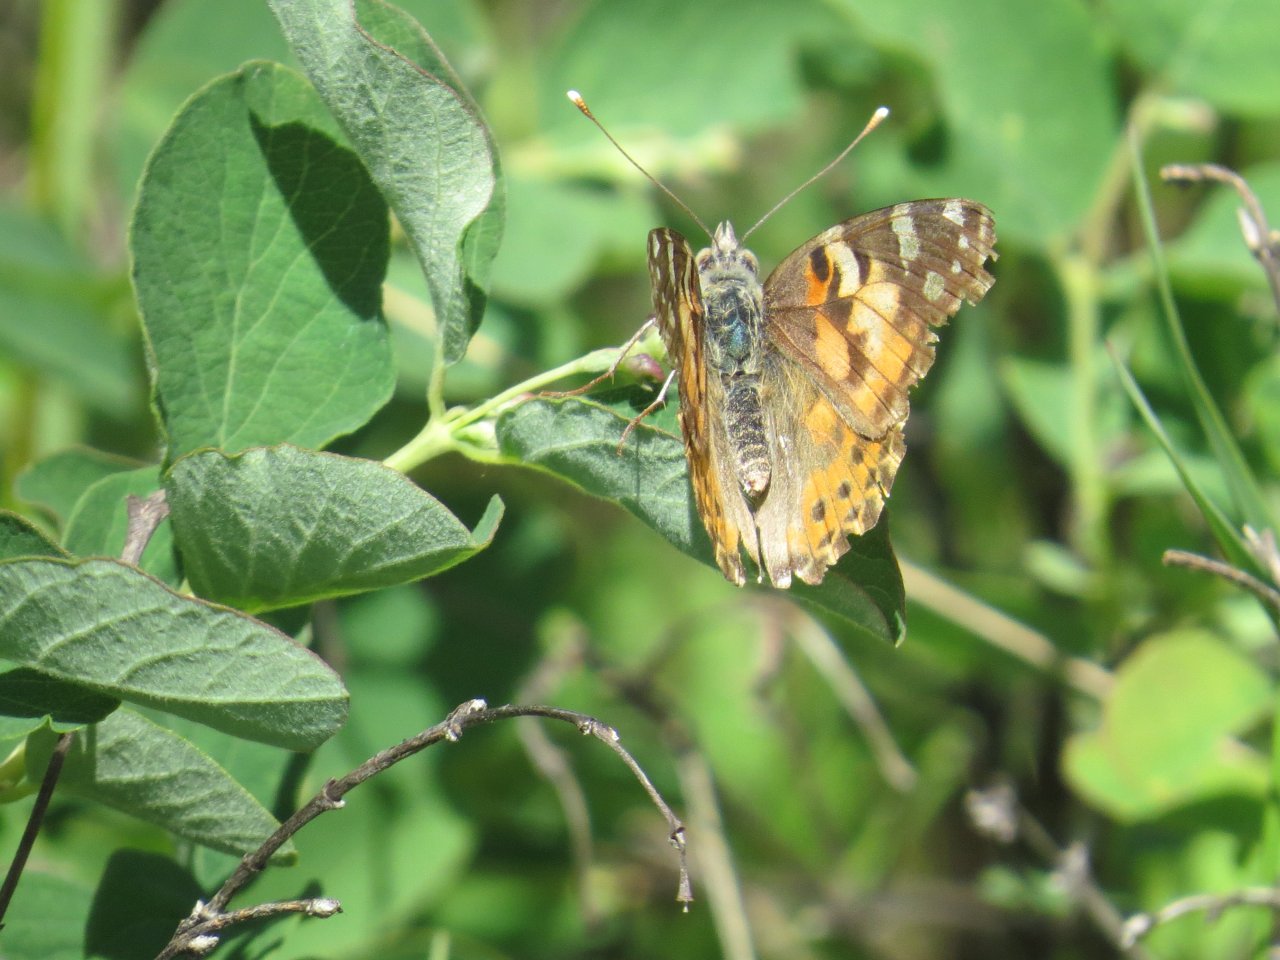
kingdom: Animalia
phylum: Arthropoda
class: Insecta
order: Lepidoptera
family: Nymphalidae
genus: Vanessa
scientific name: Vanessa cardui
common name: Painted Lady
